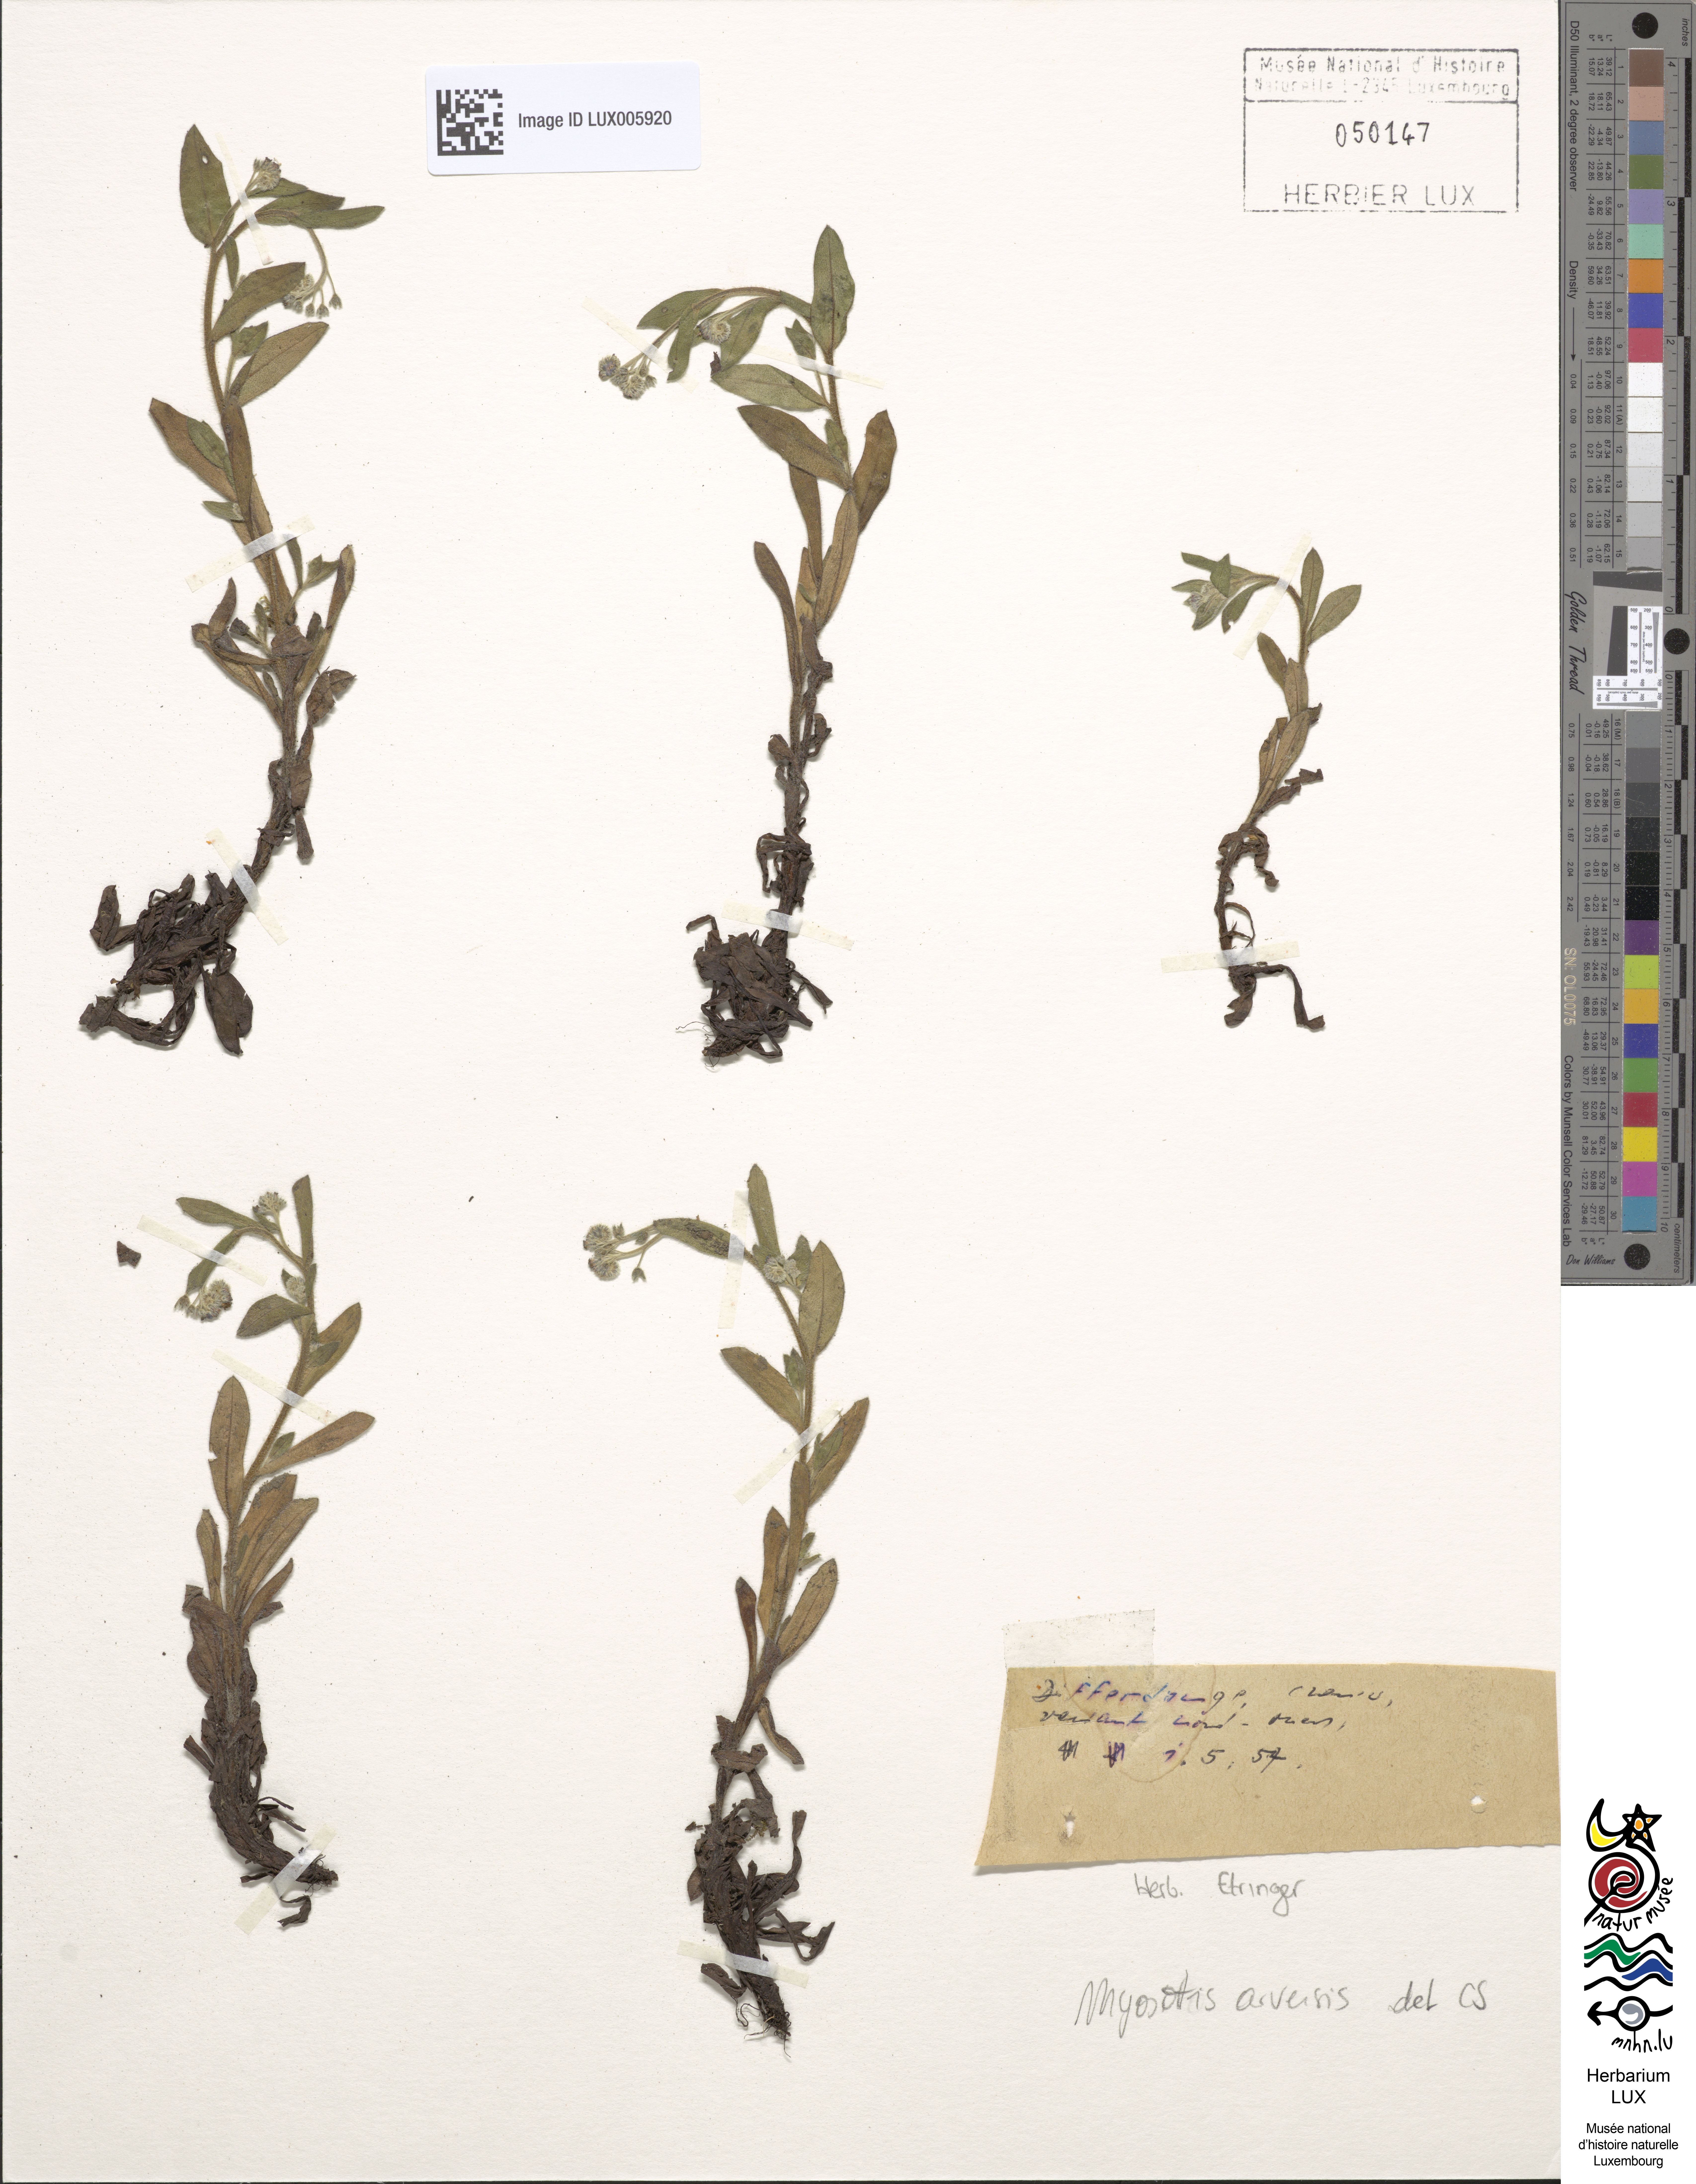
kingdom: Plantae
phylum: Tracheophyta
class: Magnoliopsida
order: Boraginales
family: Boraginaceae
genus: Myosotis
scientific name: Myosotis arvensis
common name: Field forget-me-not
